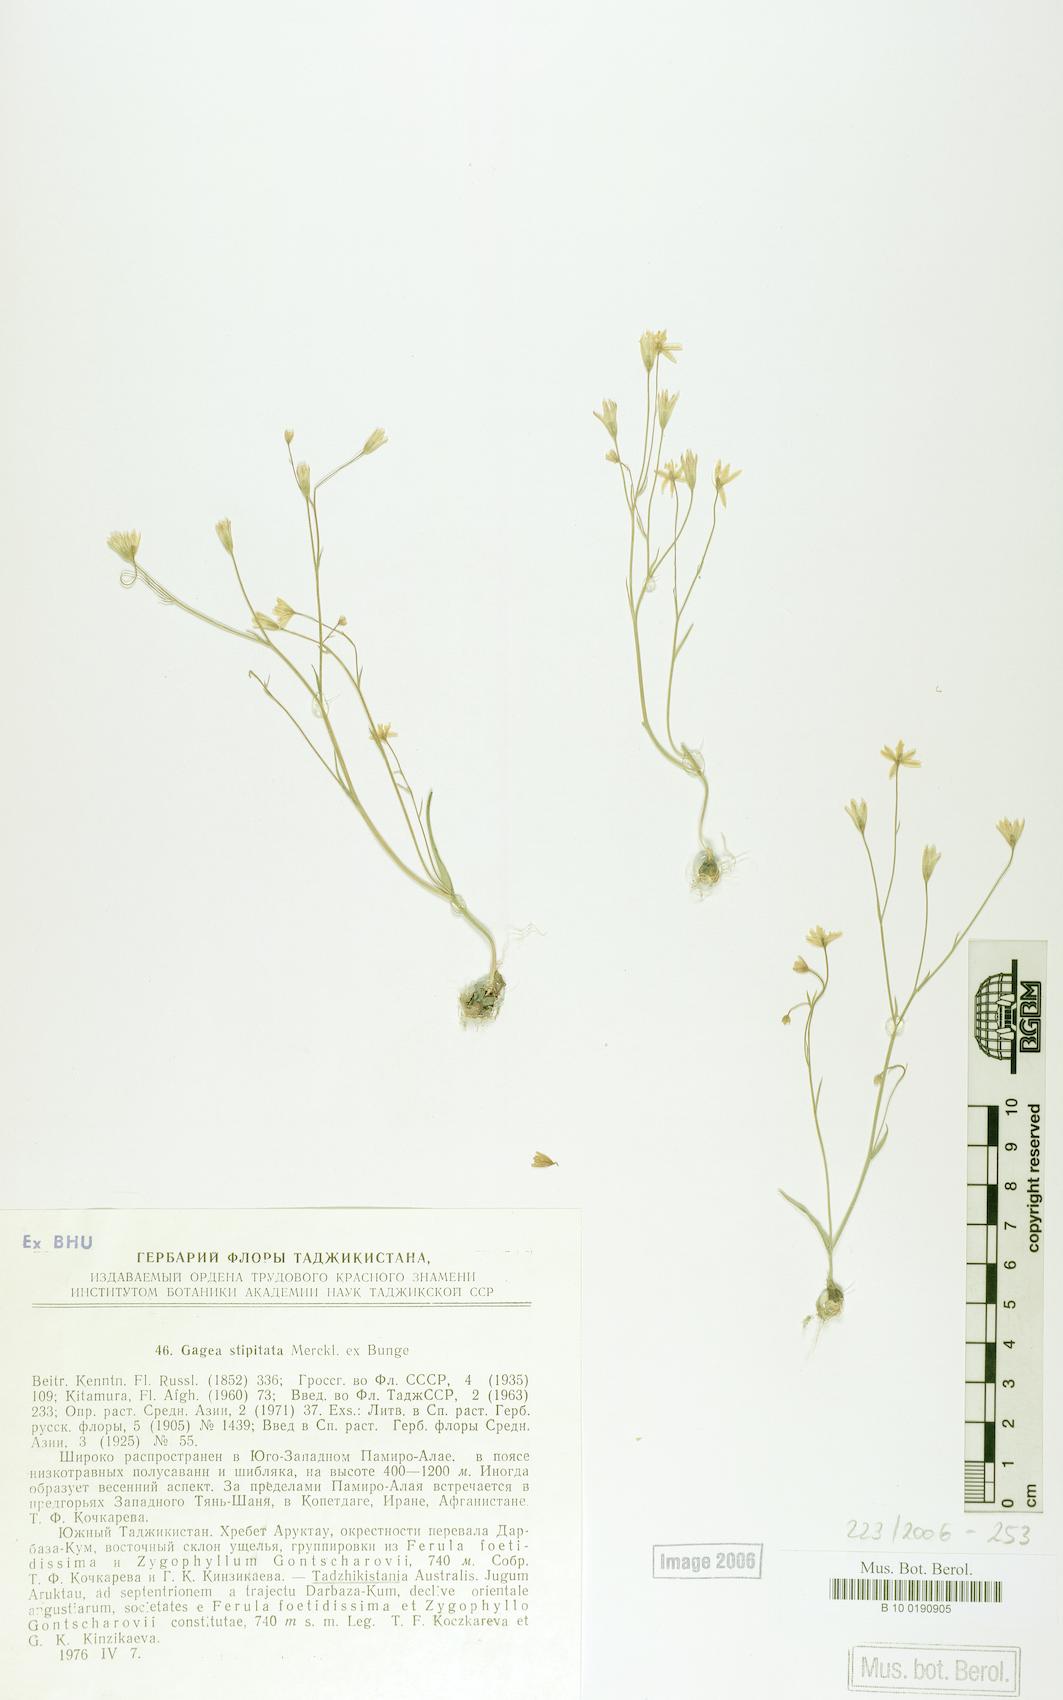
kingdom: Plantae
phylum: Tracheophyta
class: Liliopsida
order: Liliales
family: Liliaceae
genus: Gagea
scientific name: Gagea kunawurensis
